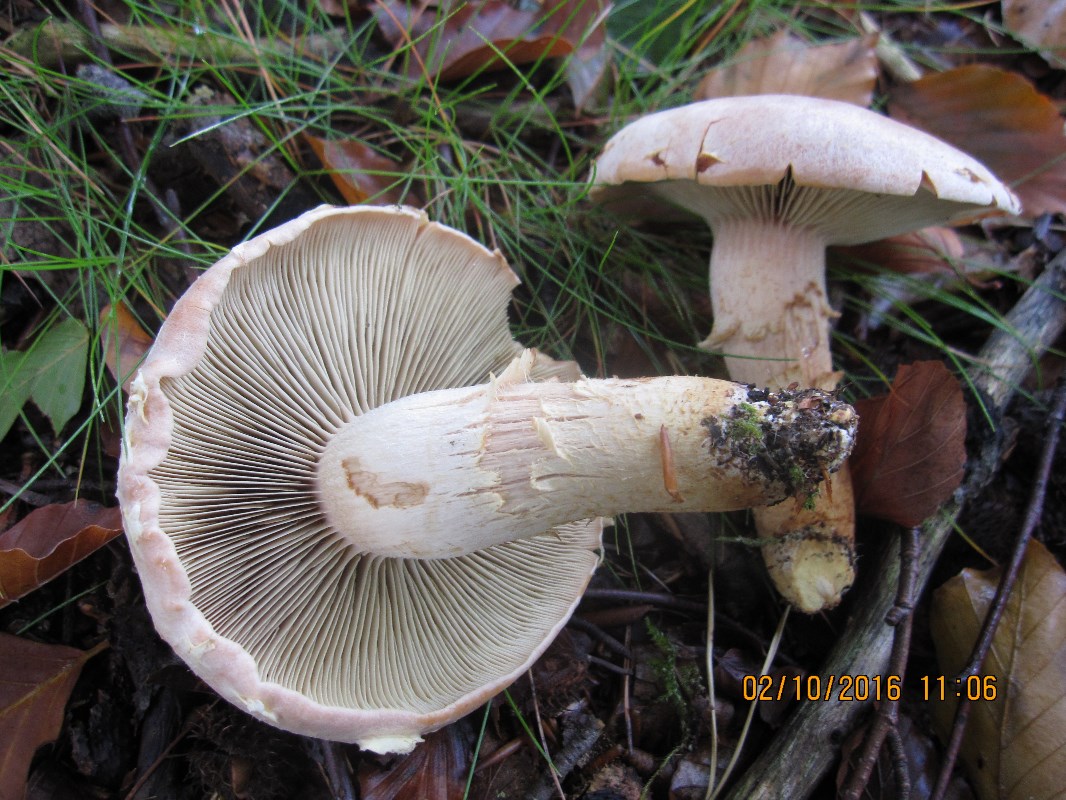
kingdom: Fungi
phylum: Basidiomycota
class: Agaricomycetes
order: Agaricales
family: Strophariaceae
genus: Hypholoma
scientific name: Hypholoma lateritium
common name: teglrød svovlhat
